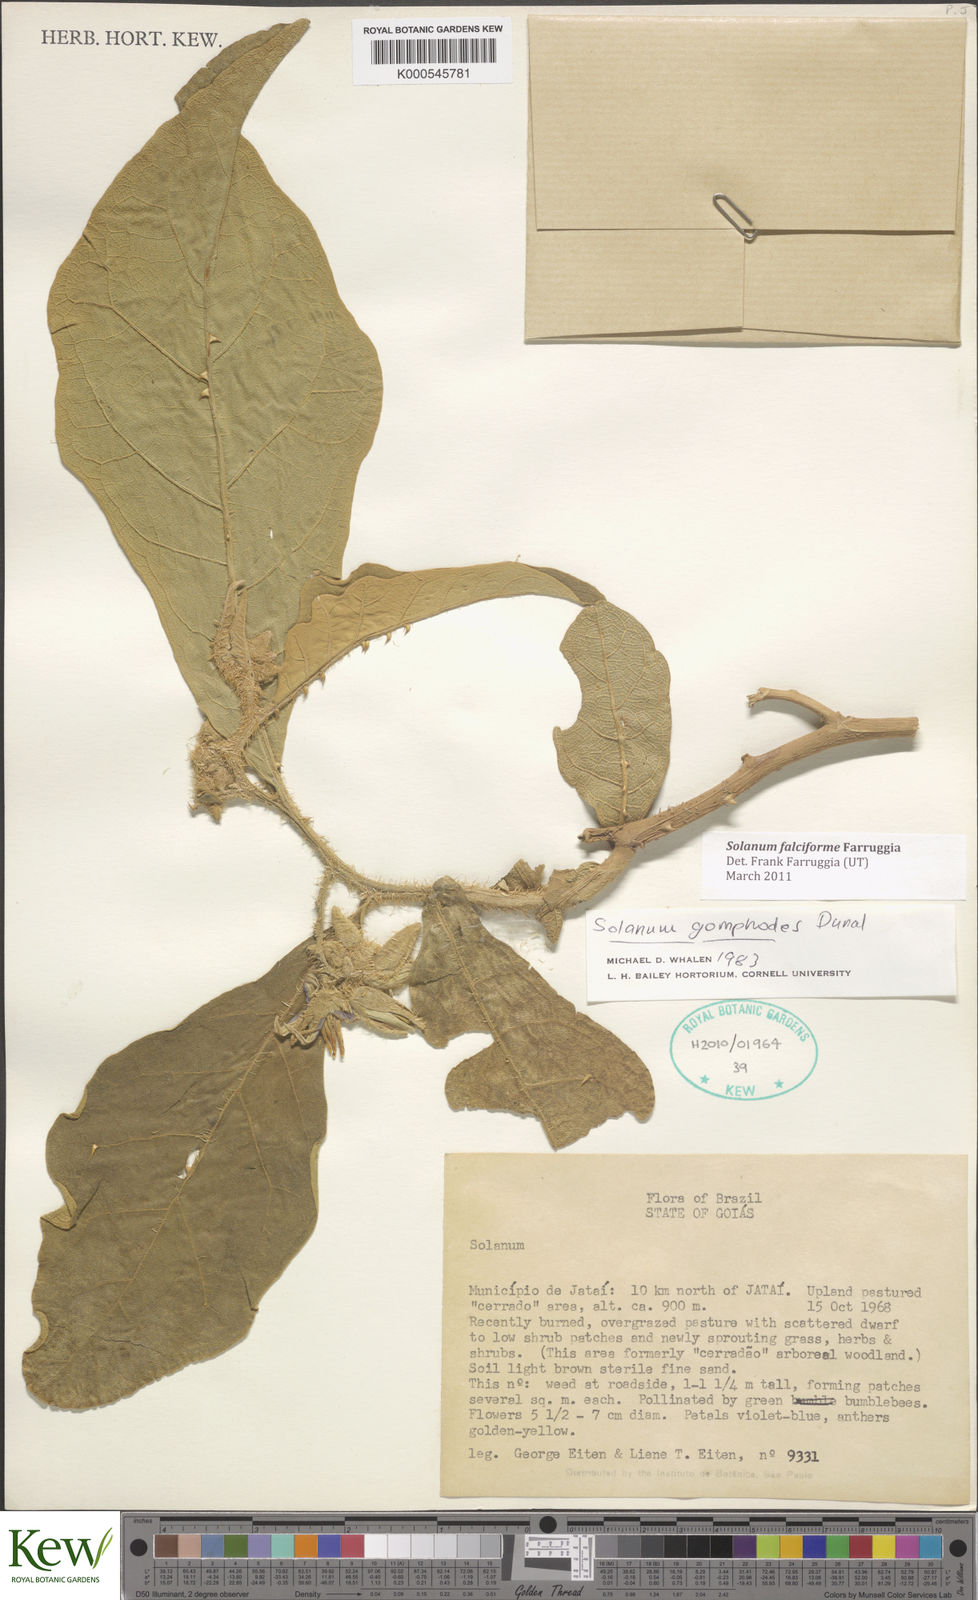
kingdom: Plantae
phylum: Tracheophyta
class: Magnoliopsida
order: Solanales
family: Solanaceae
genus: Solanum
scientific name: Solanum falciforme
